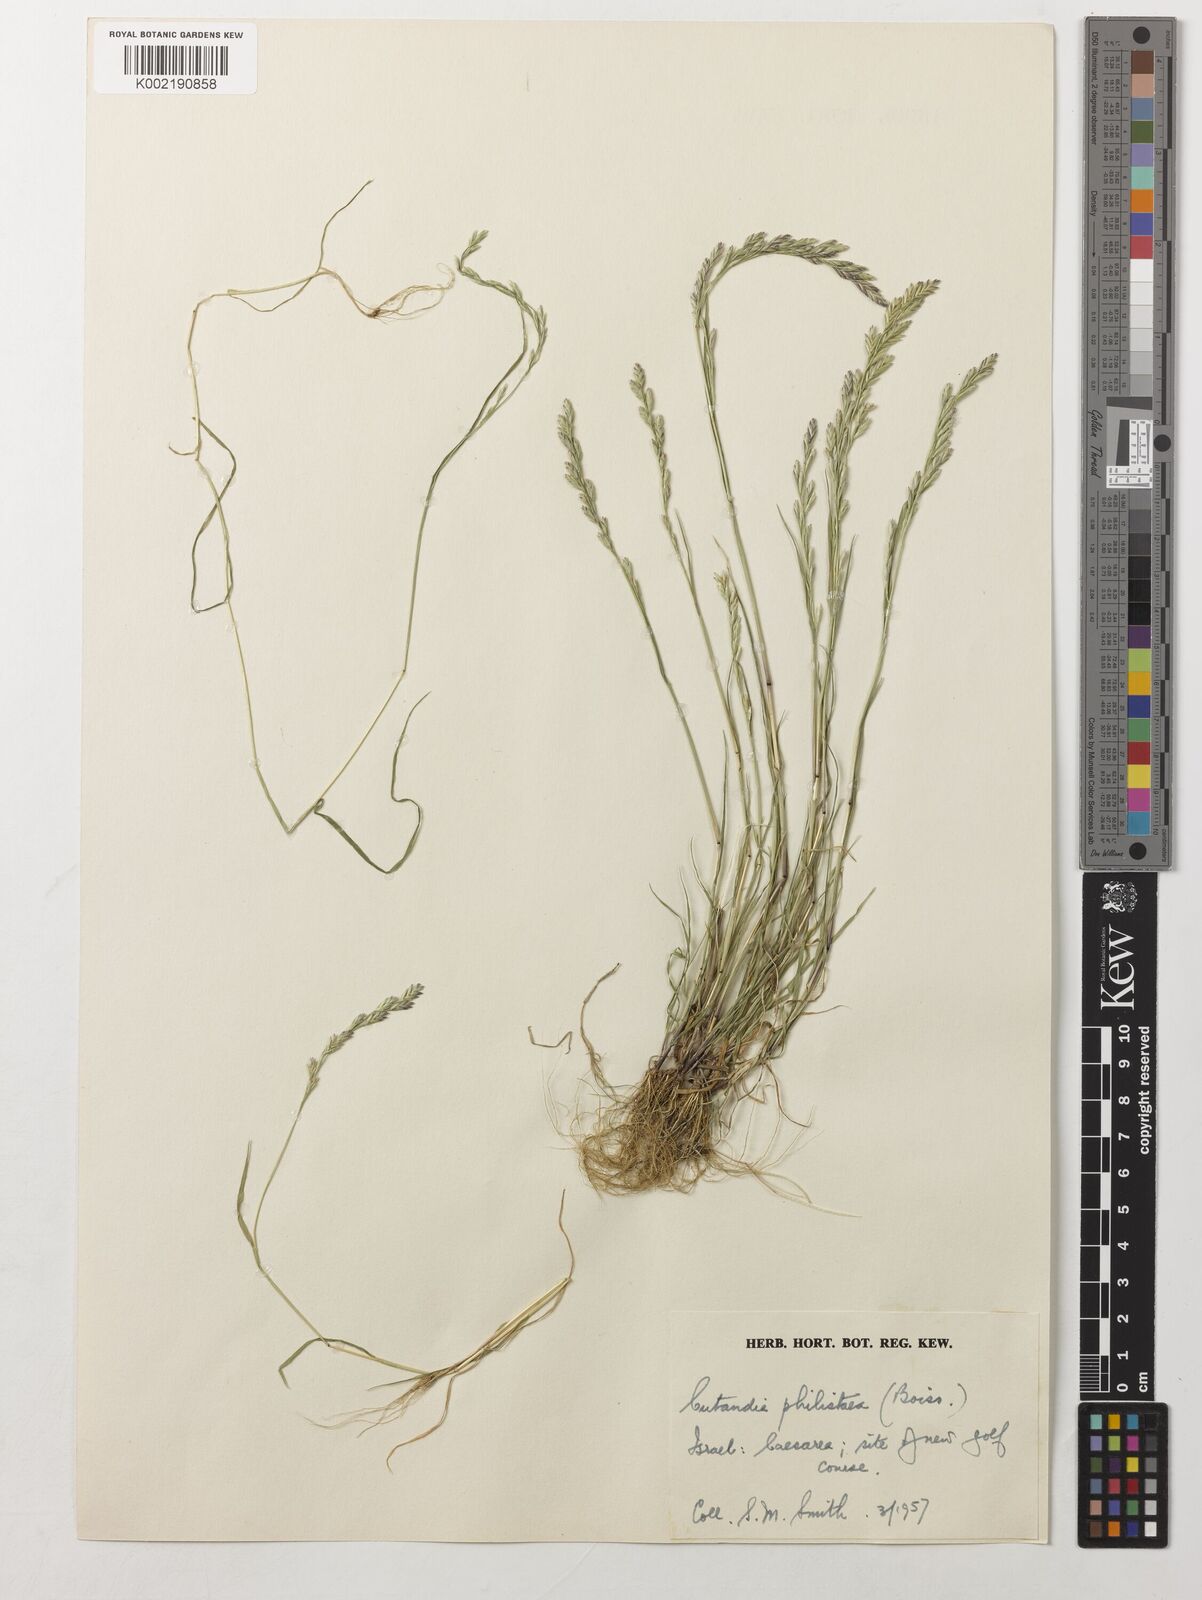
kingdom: Plantae
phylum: Tracheophyta
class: Liliopsida
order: Poales
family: Poaceae
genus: Desmazeria
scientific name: Desmazeria philistaea
